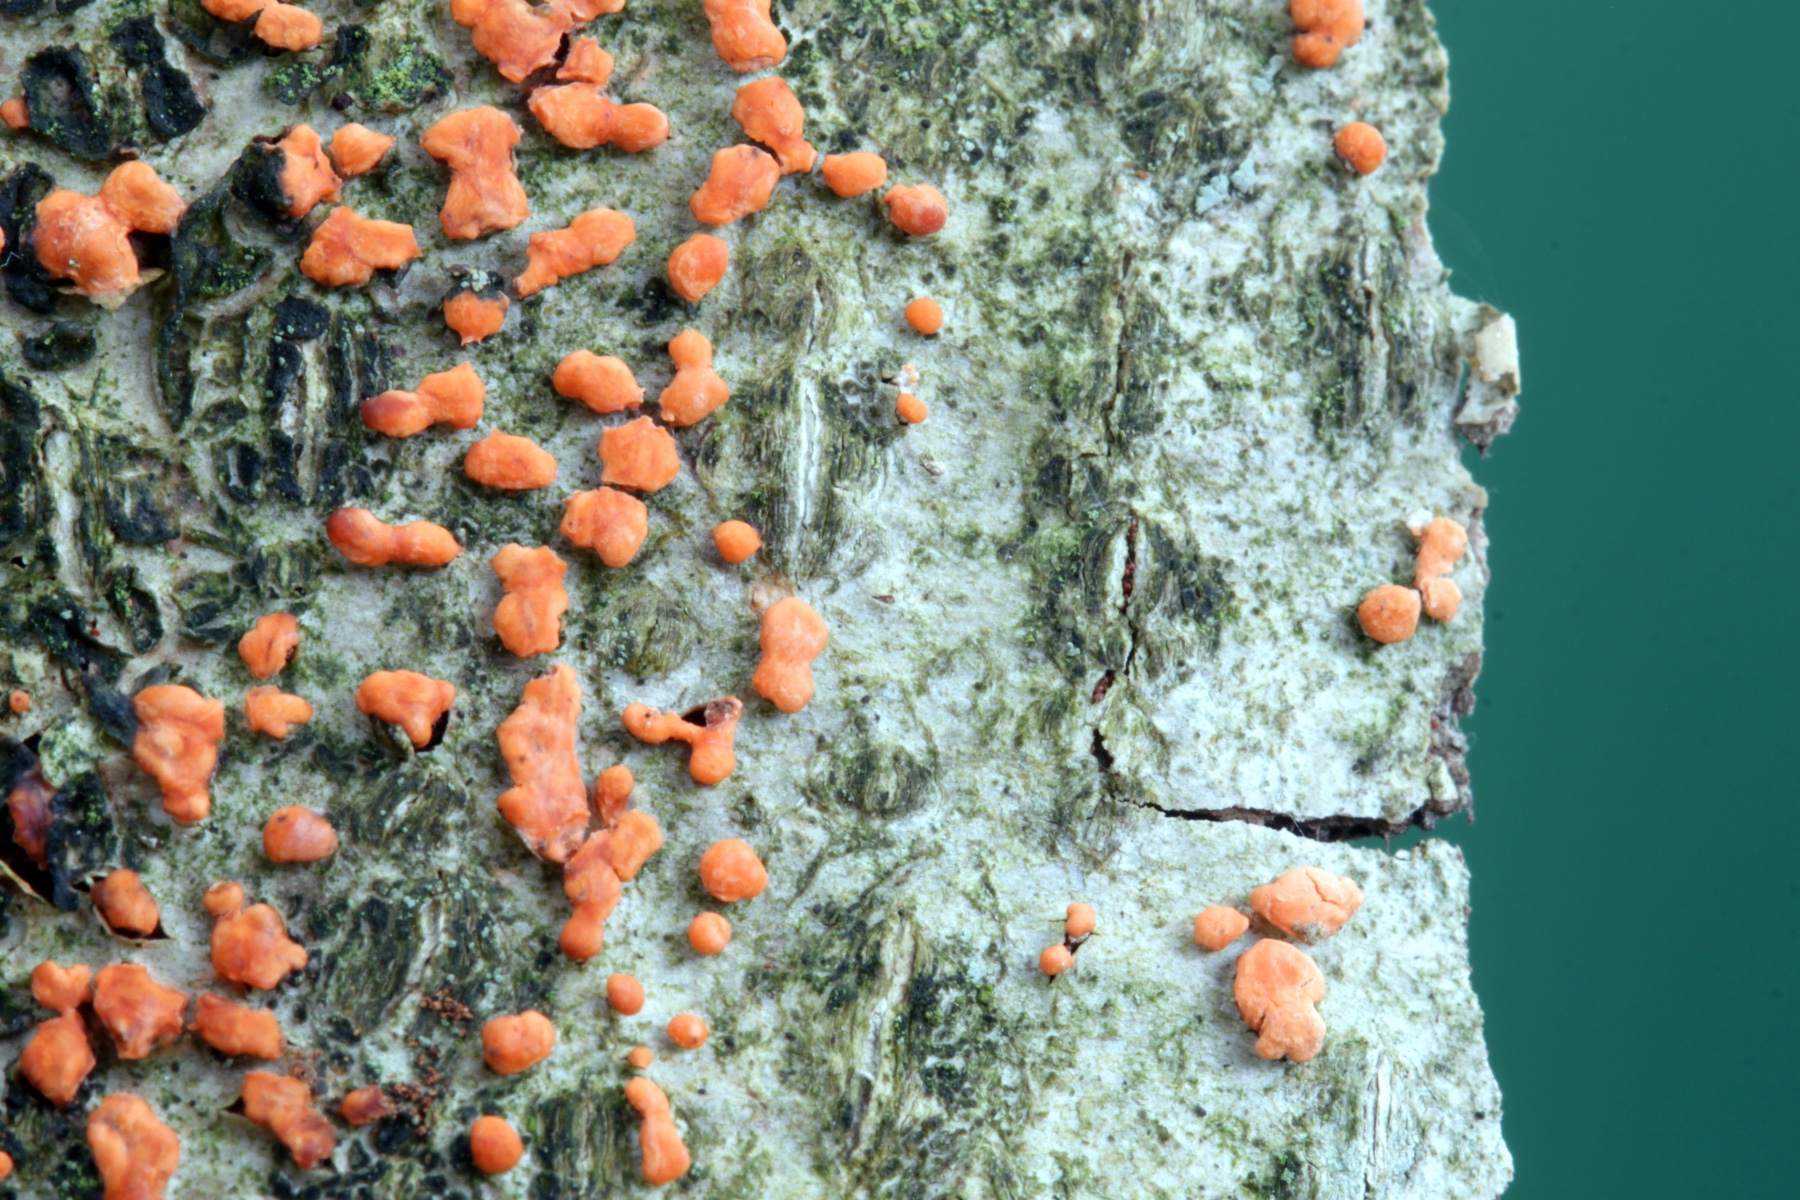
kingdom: Fungi
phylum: Ascomycota
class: Sordariomycetes
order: Hypocreales
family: Nectriaceae
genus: Nectria
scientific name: Nectria cinnabarina
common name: almindelig cinnobersvamp
